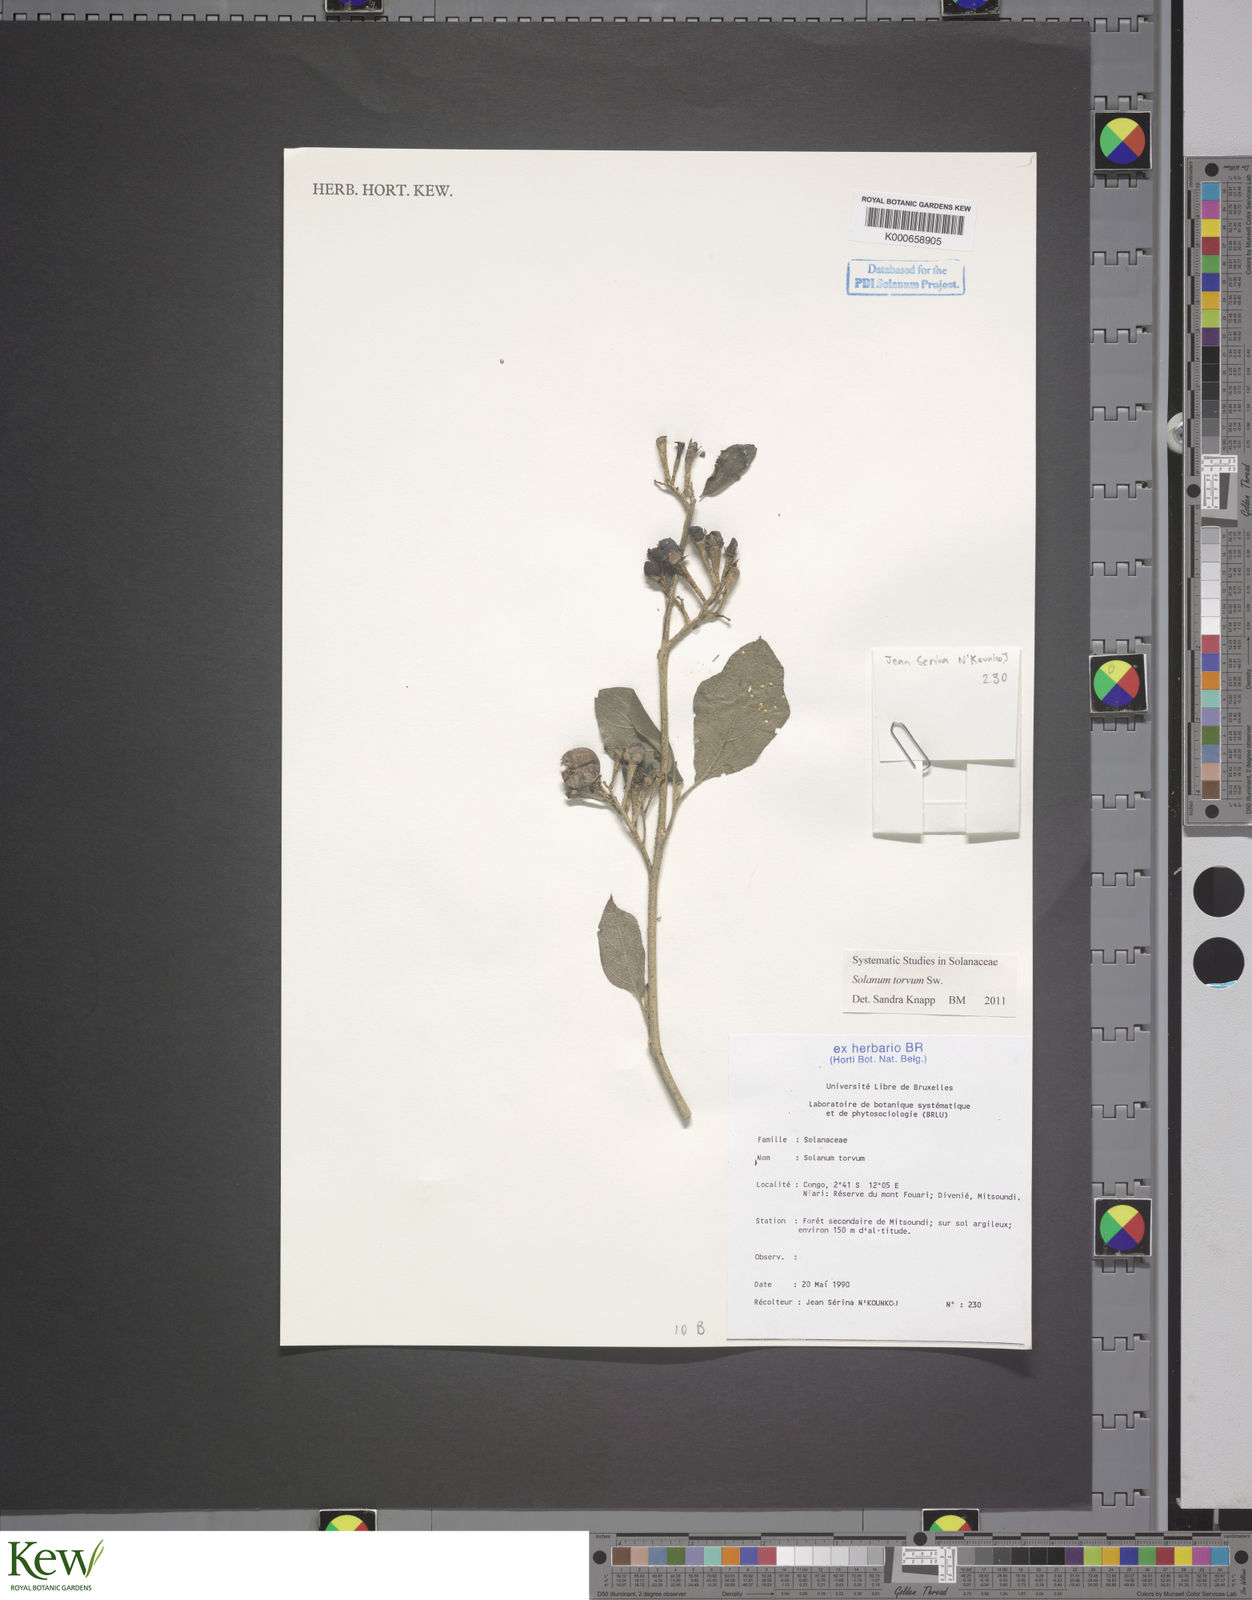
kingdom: Plantae
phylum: Tracheophyta
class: Magnoliopsida
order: Solanales
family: Solanaceae
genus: Solanum
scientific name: Solanum torvum
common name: Turkey berry
